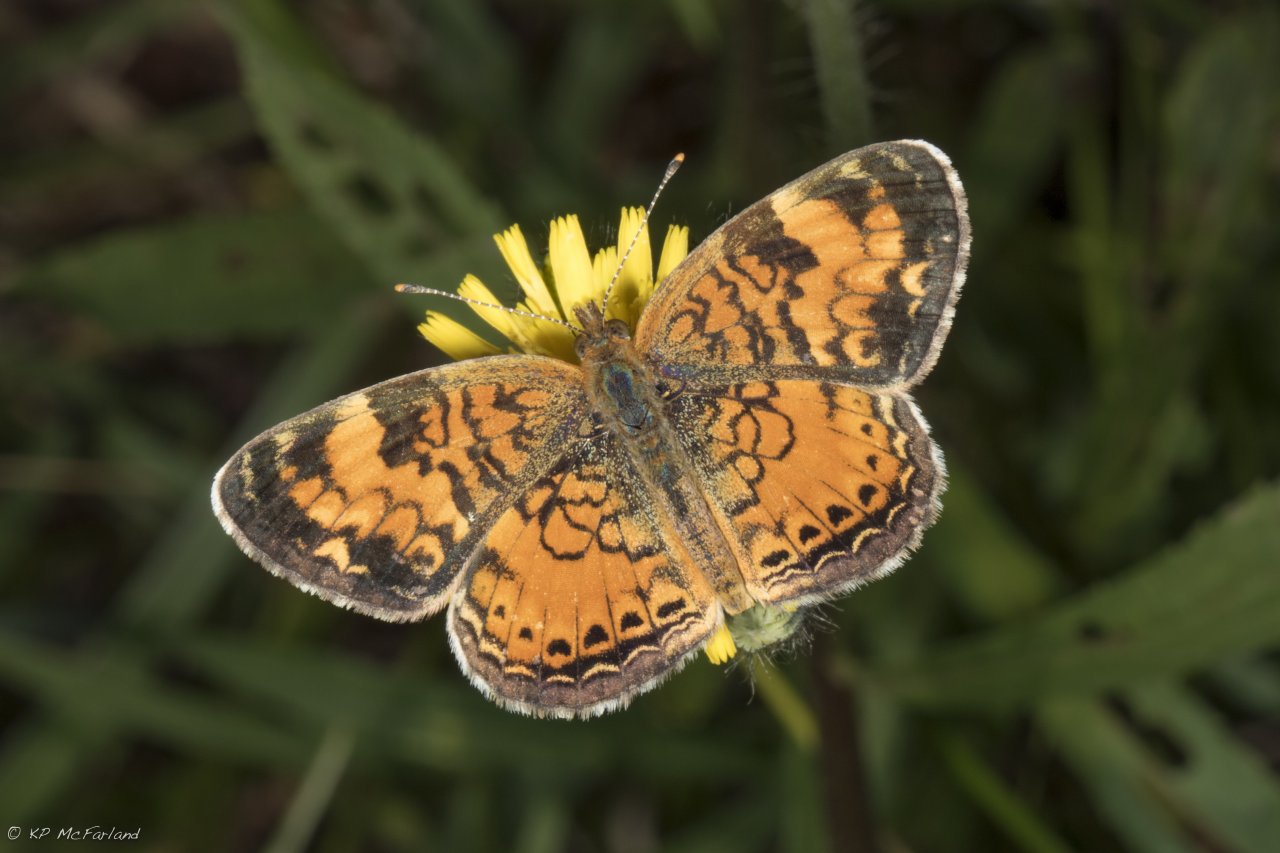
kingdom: Animalia
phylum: Arthropoda
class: Insecta
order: Lepidoptera
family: Nymphalidae
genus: Phyciodes
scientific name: Phyciodes tharos
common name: Northern Crescent
